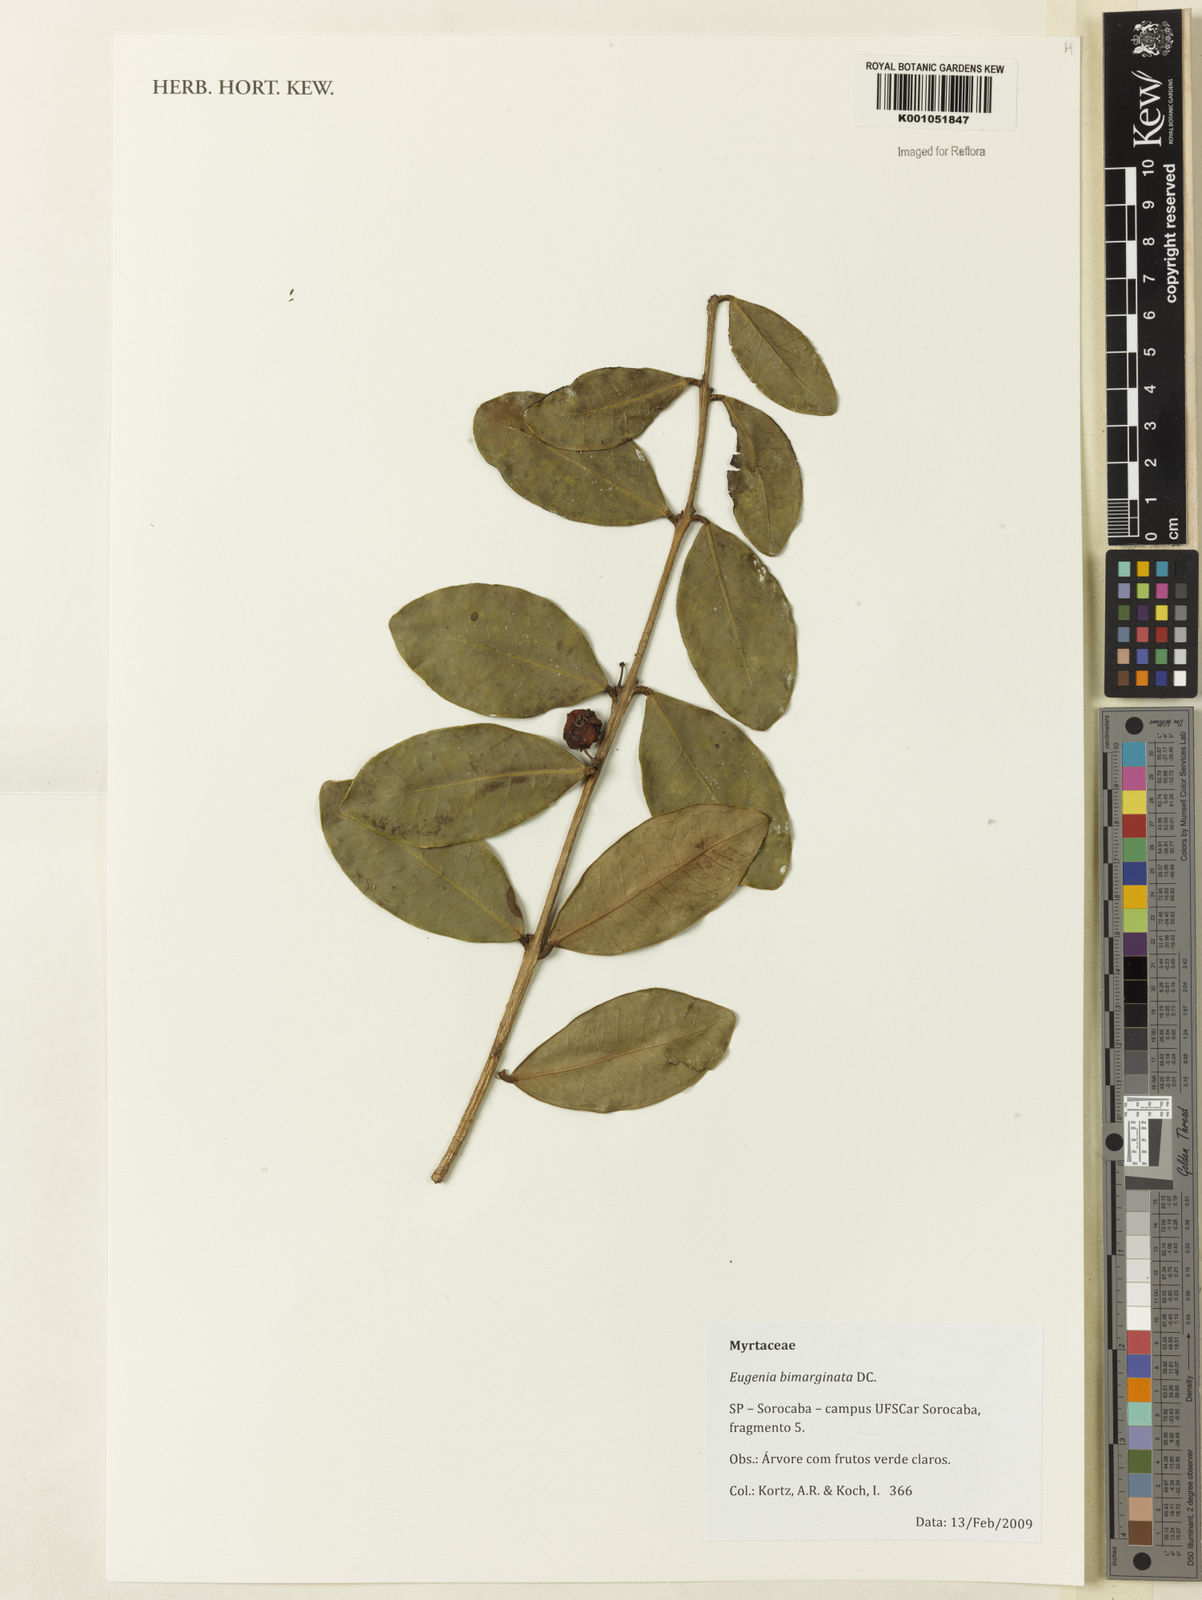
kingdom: Plantae
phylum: Tracheophyta
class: Magnoliopsida
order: Myrtales
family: Myrtaceae
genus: Eugenia
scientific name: Eugenia bimarginata
